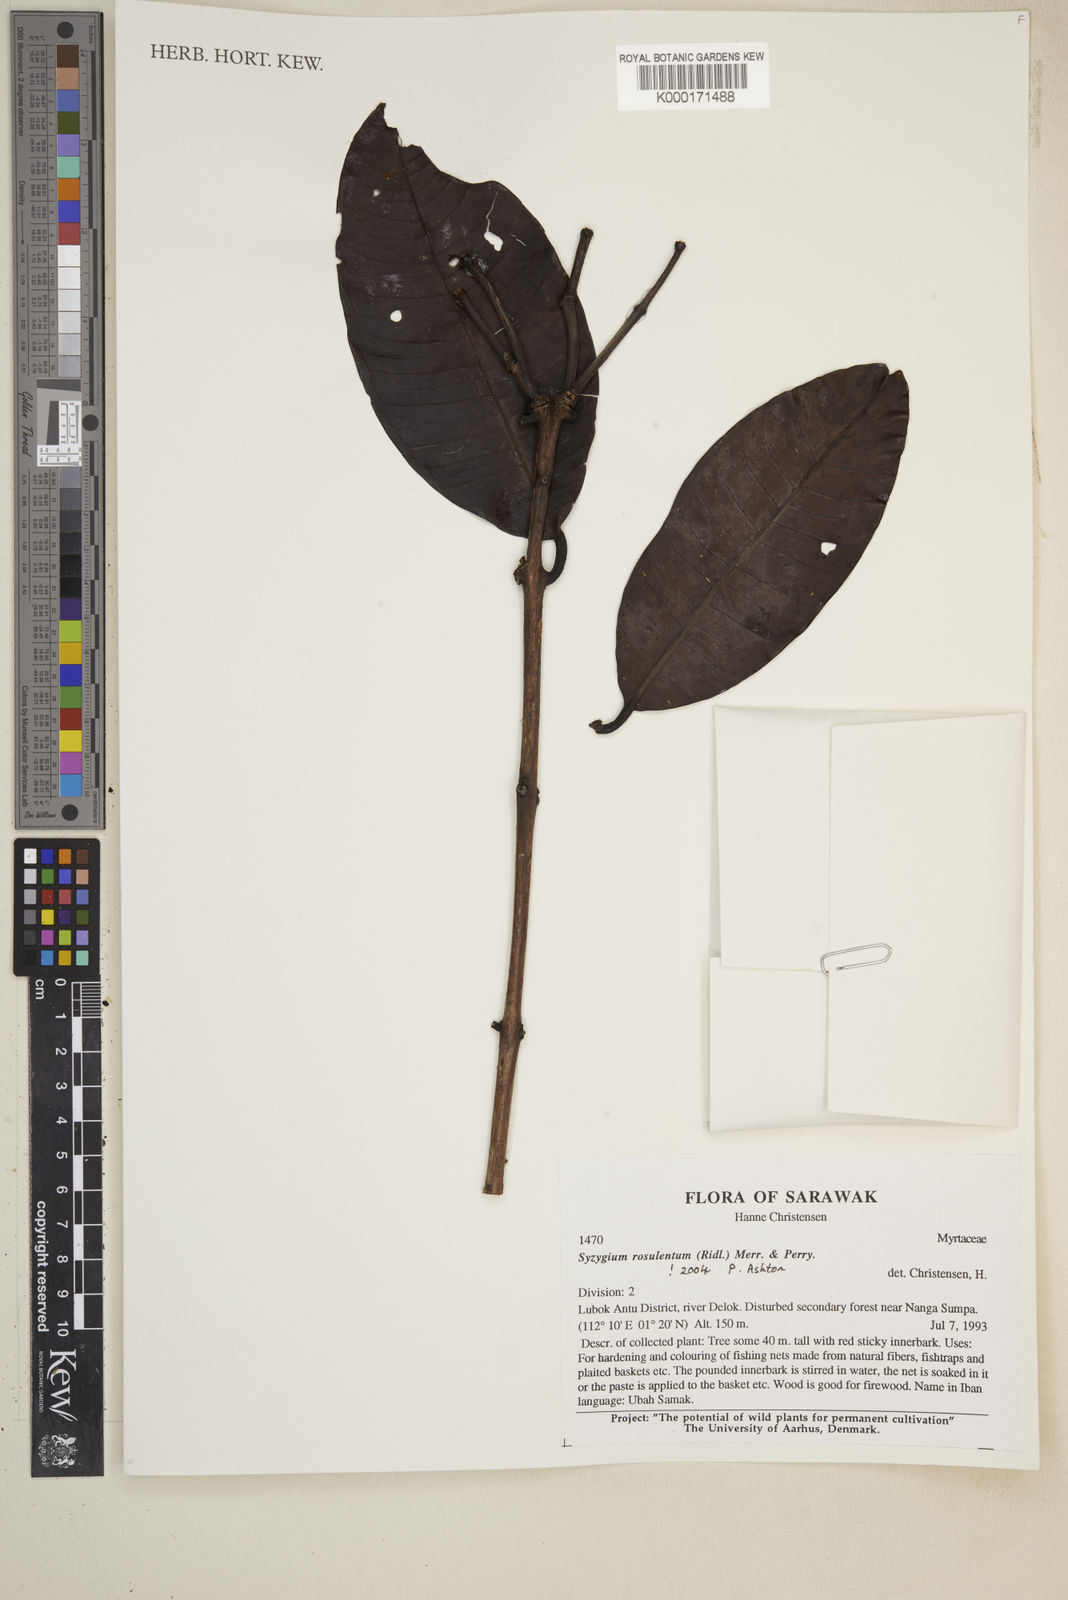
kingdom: Plantae
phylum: Tracheophyta
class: Magnoliopsida
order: Myrtales
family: Myrtaceae
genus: Syzygium
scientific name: Syzygium rosulentum
